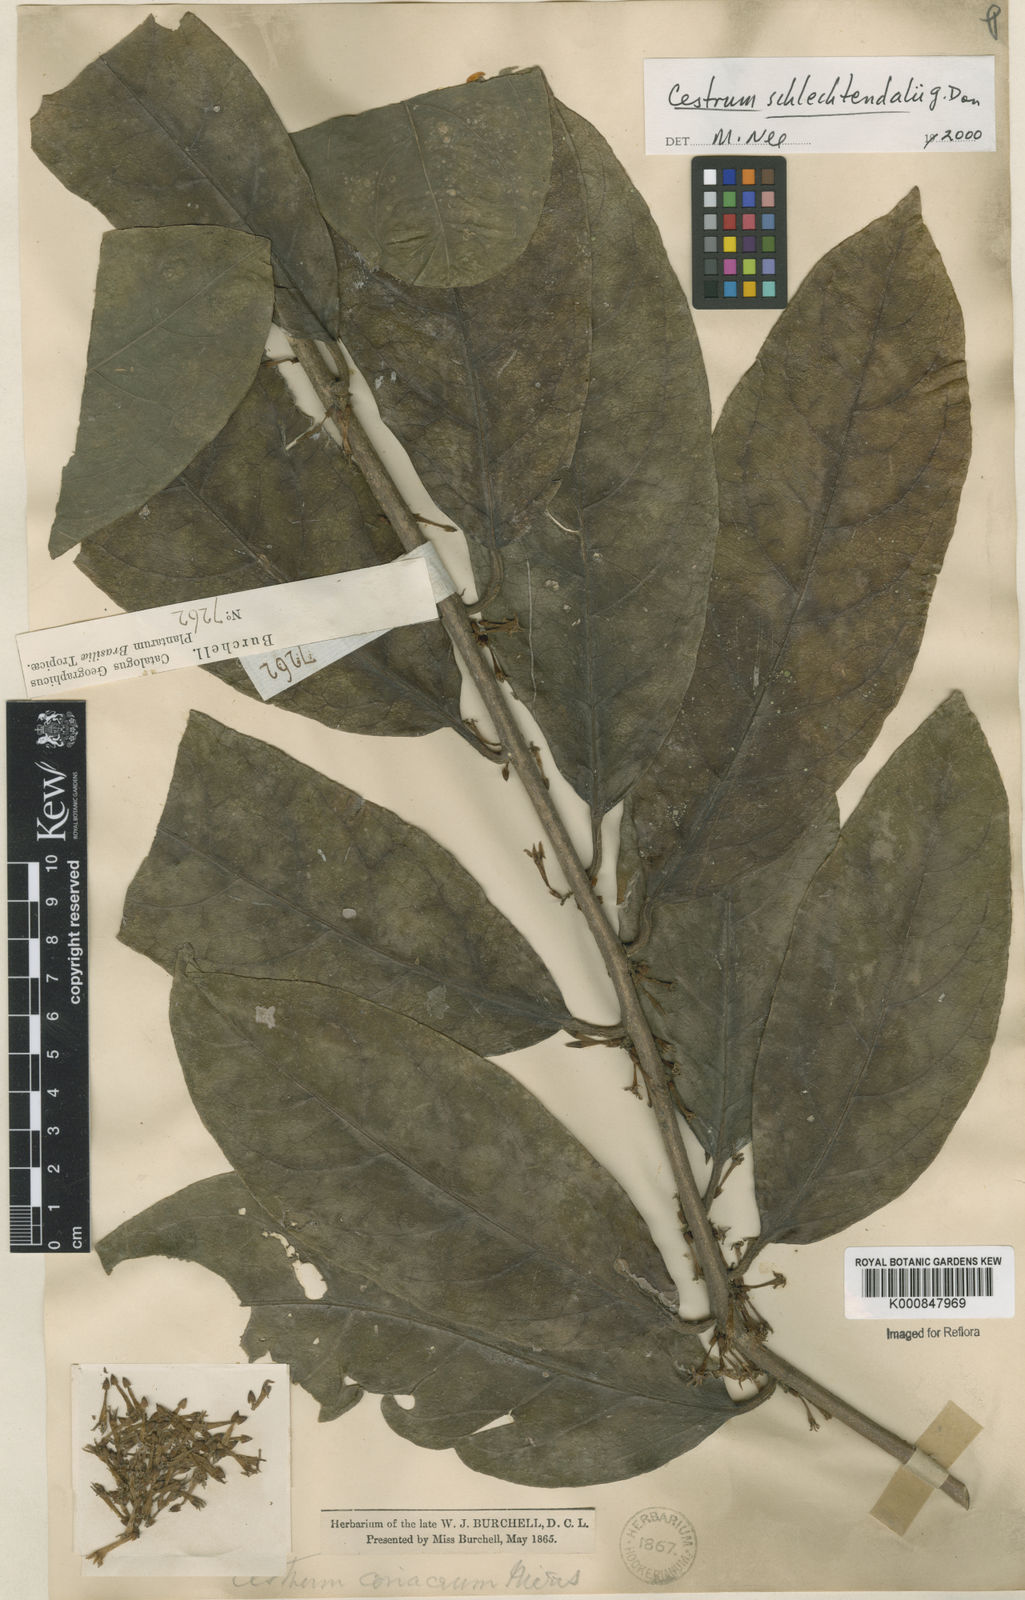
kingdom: Plantae
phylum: Tracheophyta
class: Magnoliopsida
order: Solanales
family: Solanaceae
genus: Cestrum
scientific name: Cestrum schlechtendalii
